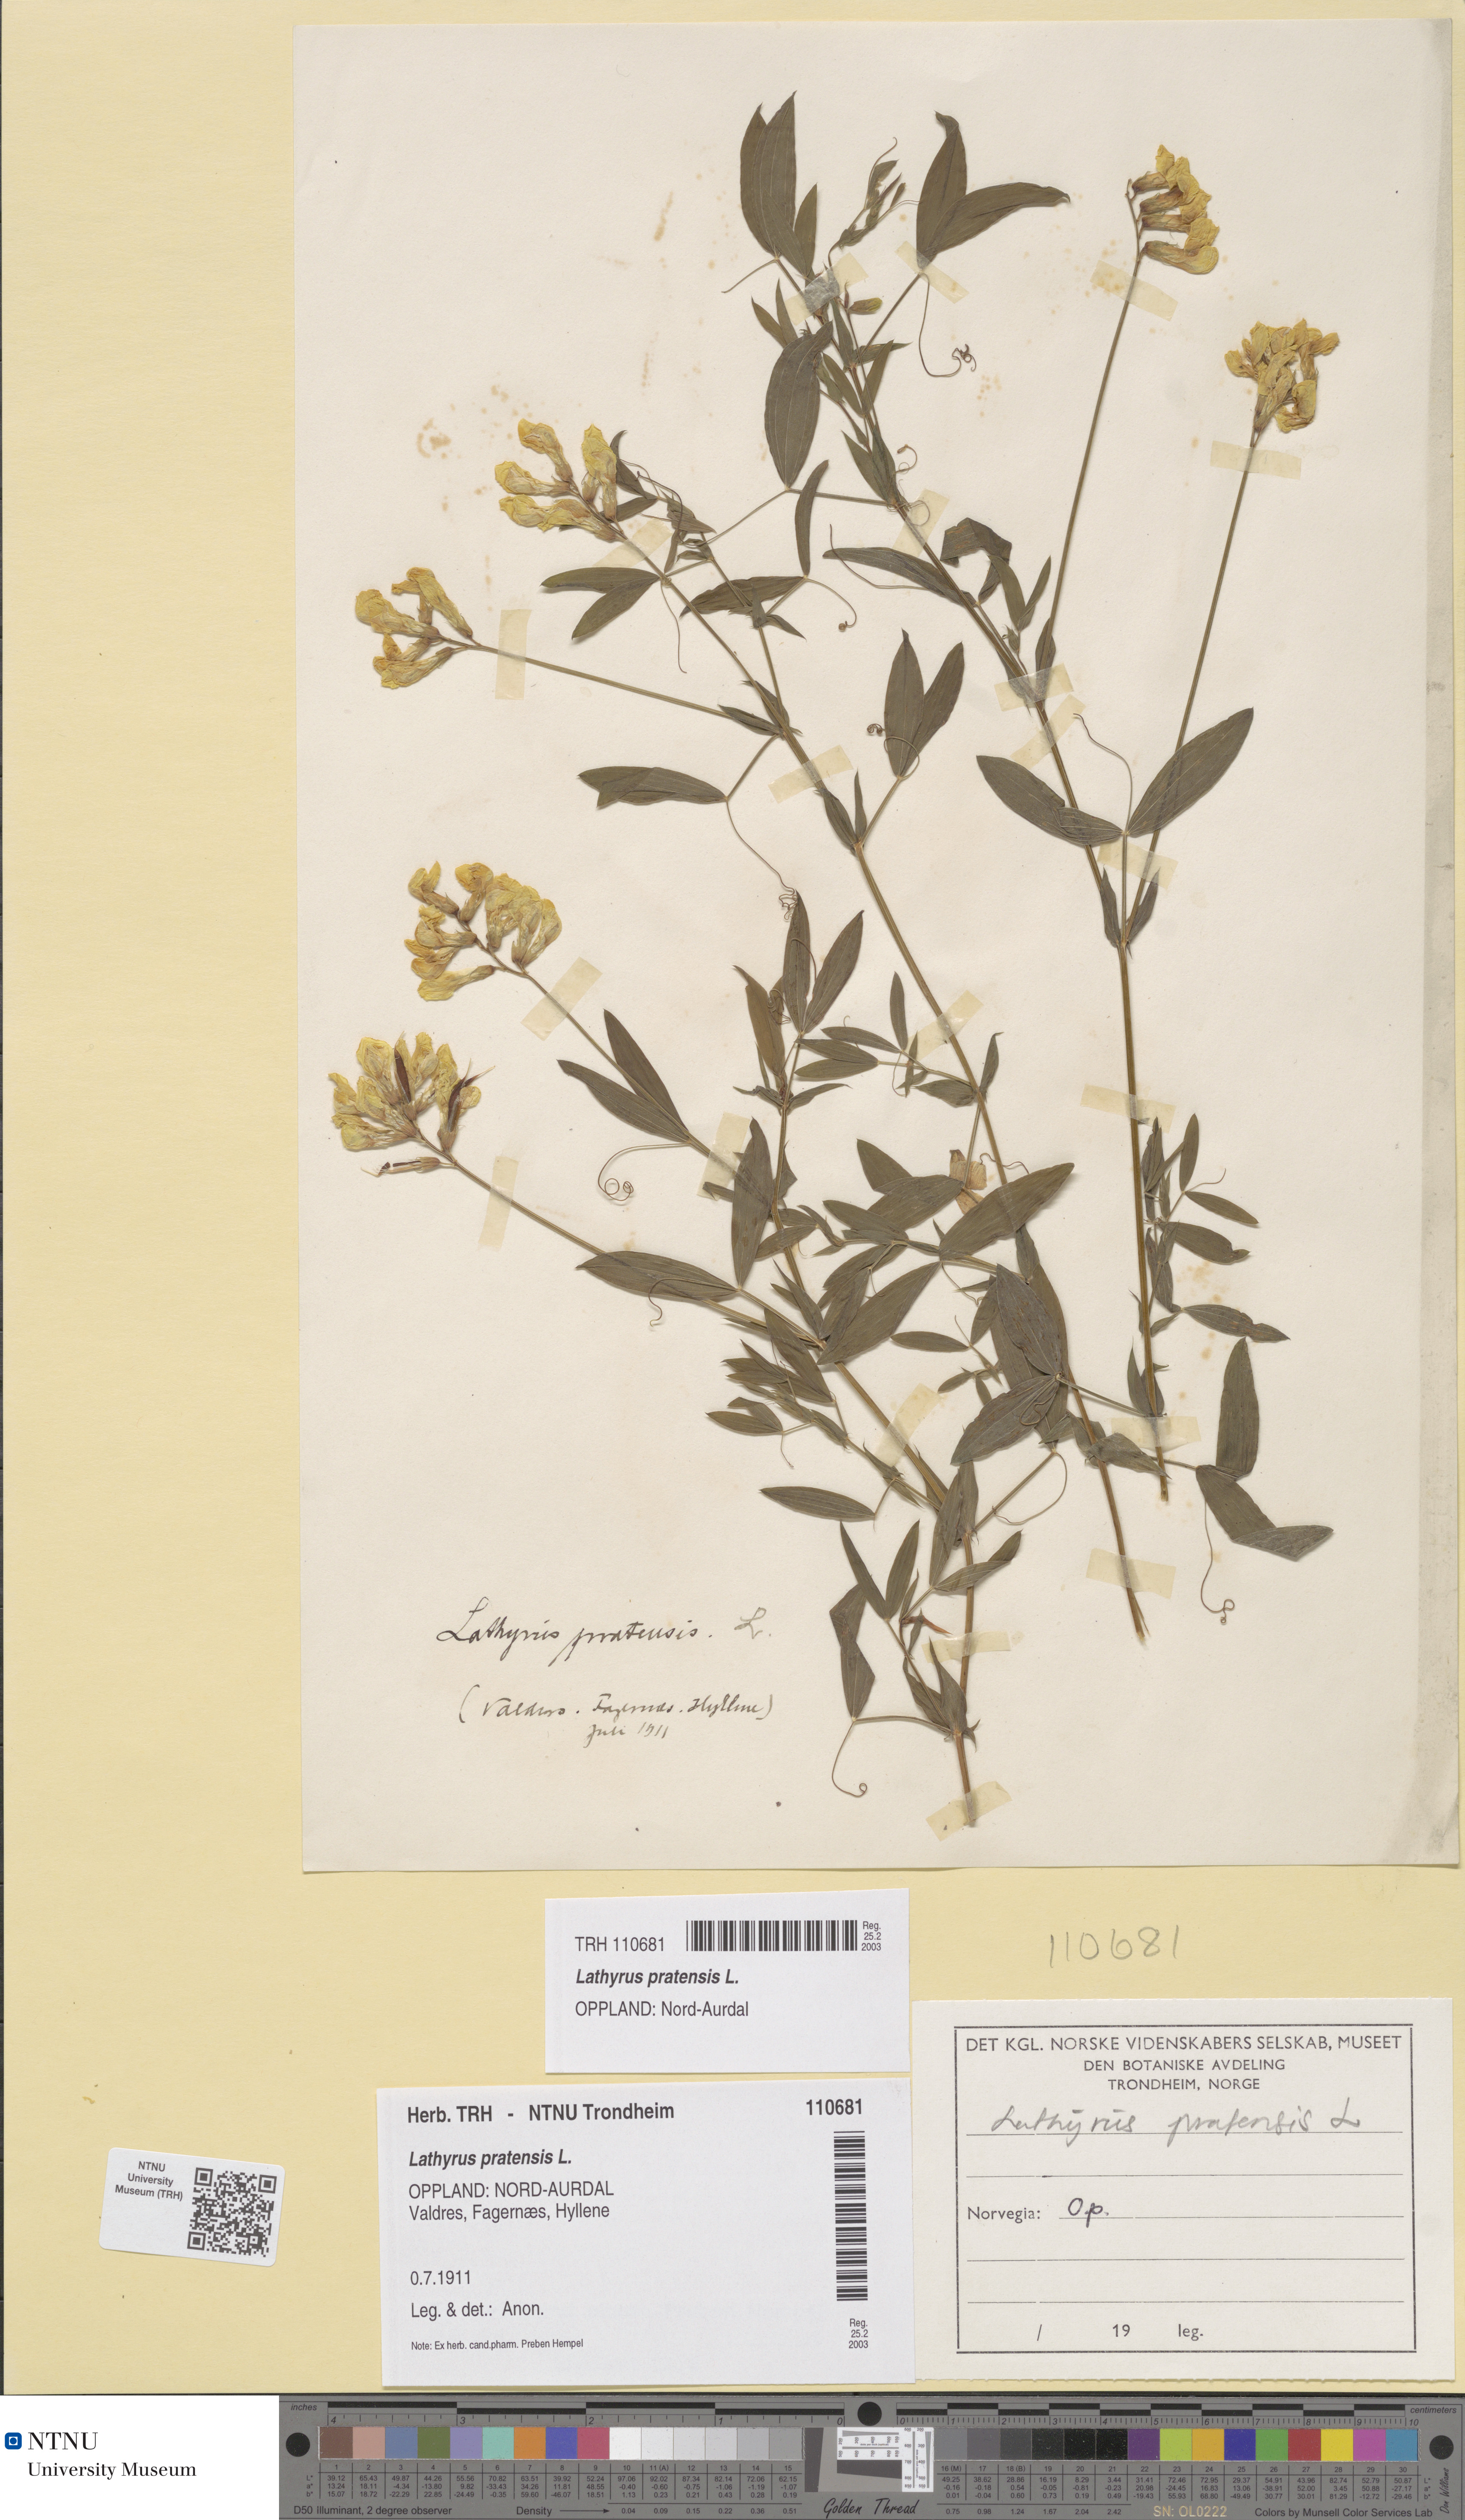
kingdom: Plantae
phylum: Tracheophyta
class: Magnoliopsida
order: Fabales
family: Fabaceae
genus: Lathyrus
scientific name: Lathyrus pratensis
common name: Meadow vetchling
